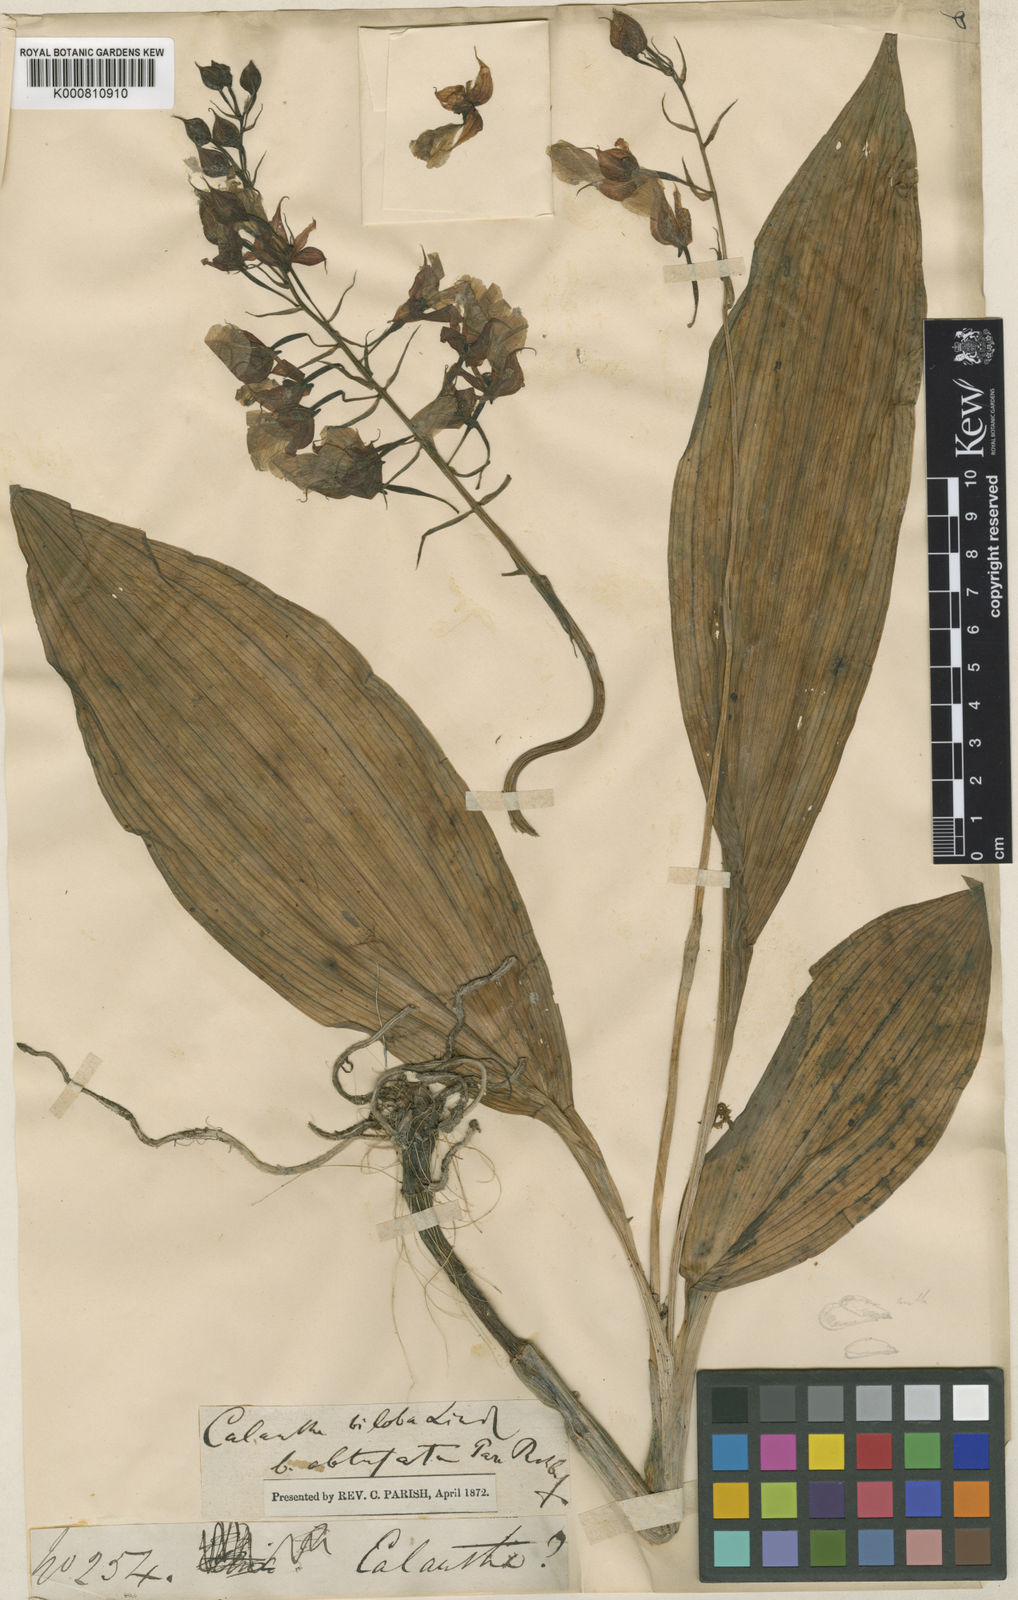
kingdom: Plantae
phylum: Tracheophyta
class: Liliopsida
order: Asparagales
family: Orchidaceae
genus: Calanthe
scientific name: Calanthe biloba
